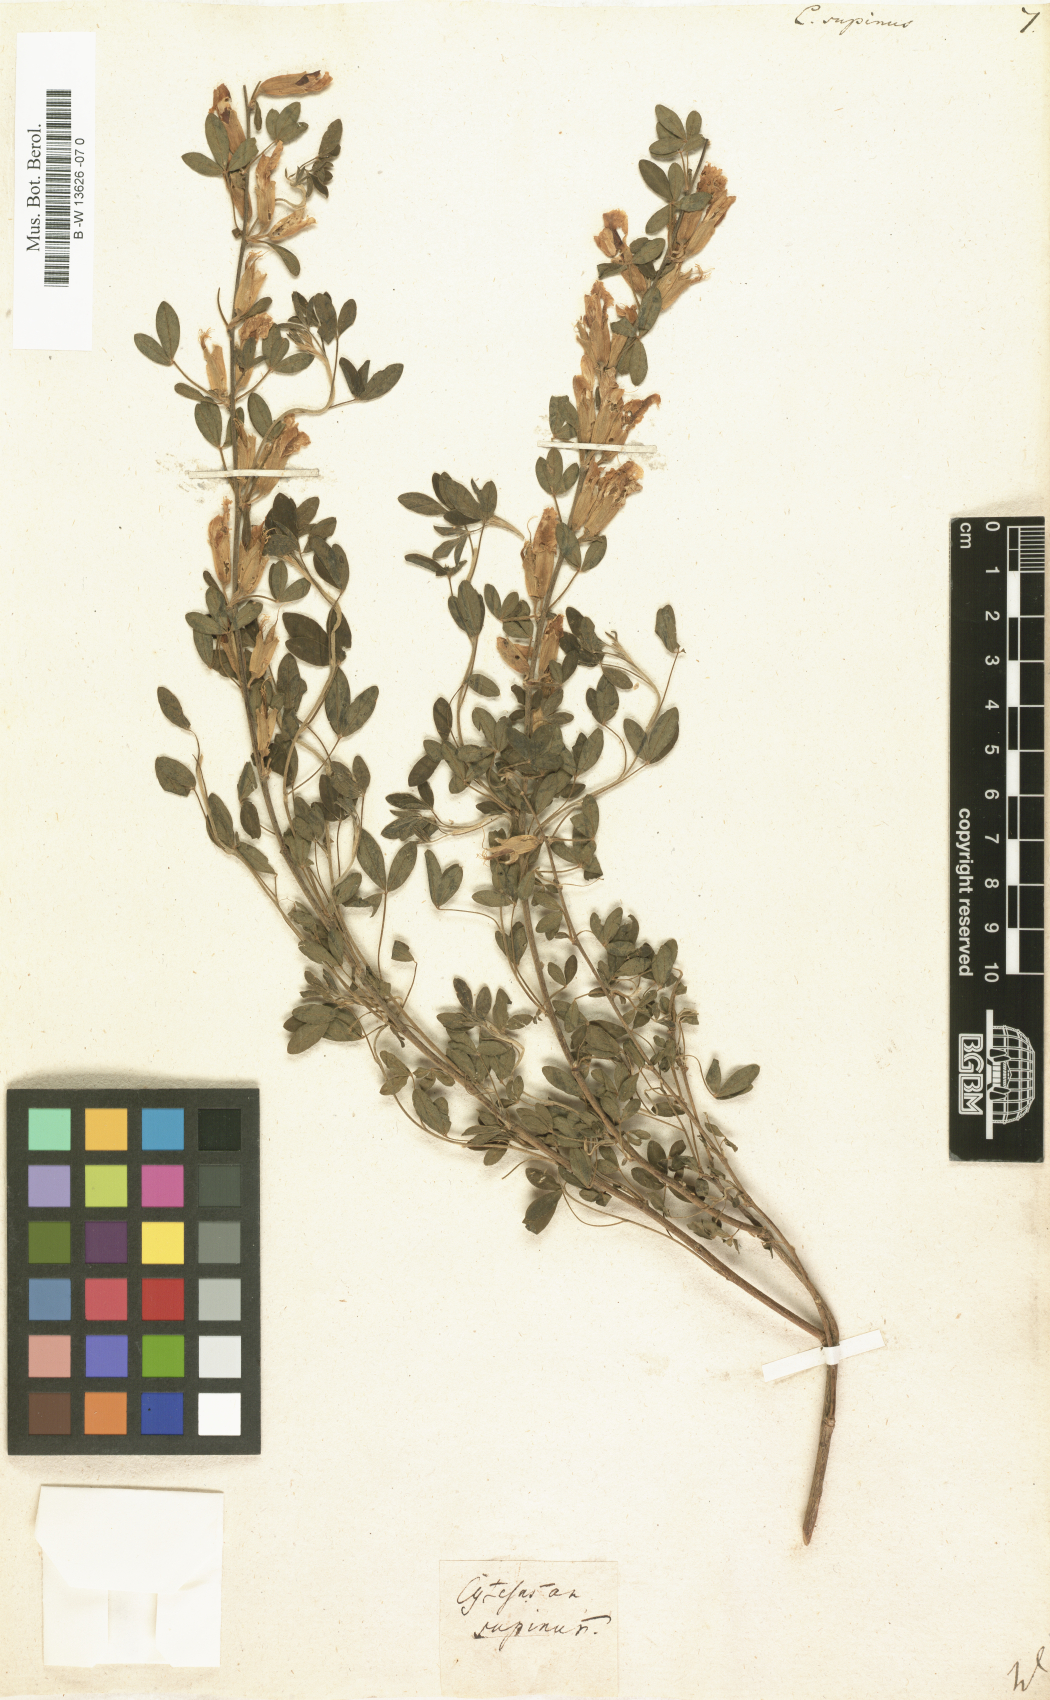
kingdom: Plantae
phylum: Tracheophyta
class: Magnoliopsida
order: Fabales
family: Fabaceae
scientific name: Fabaceae
